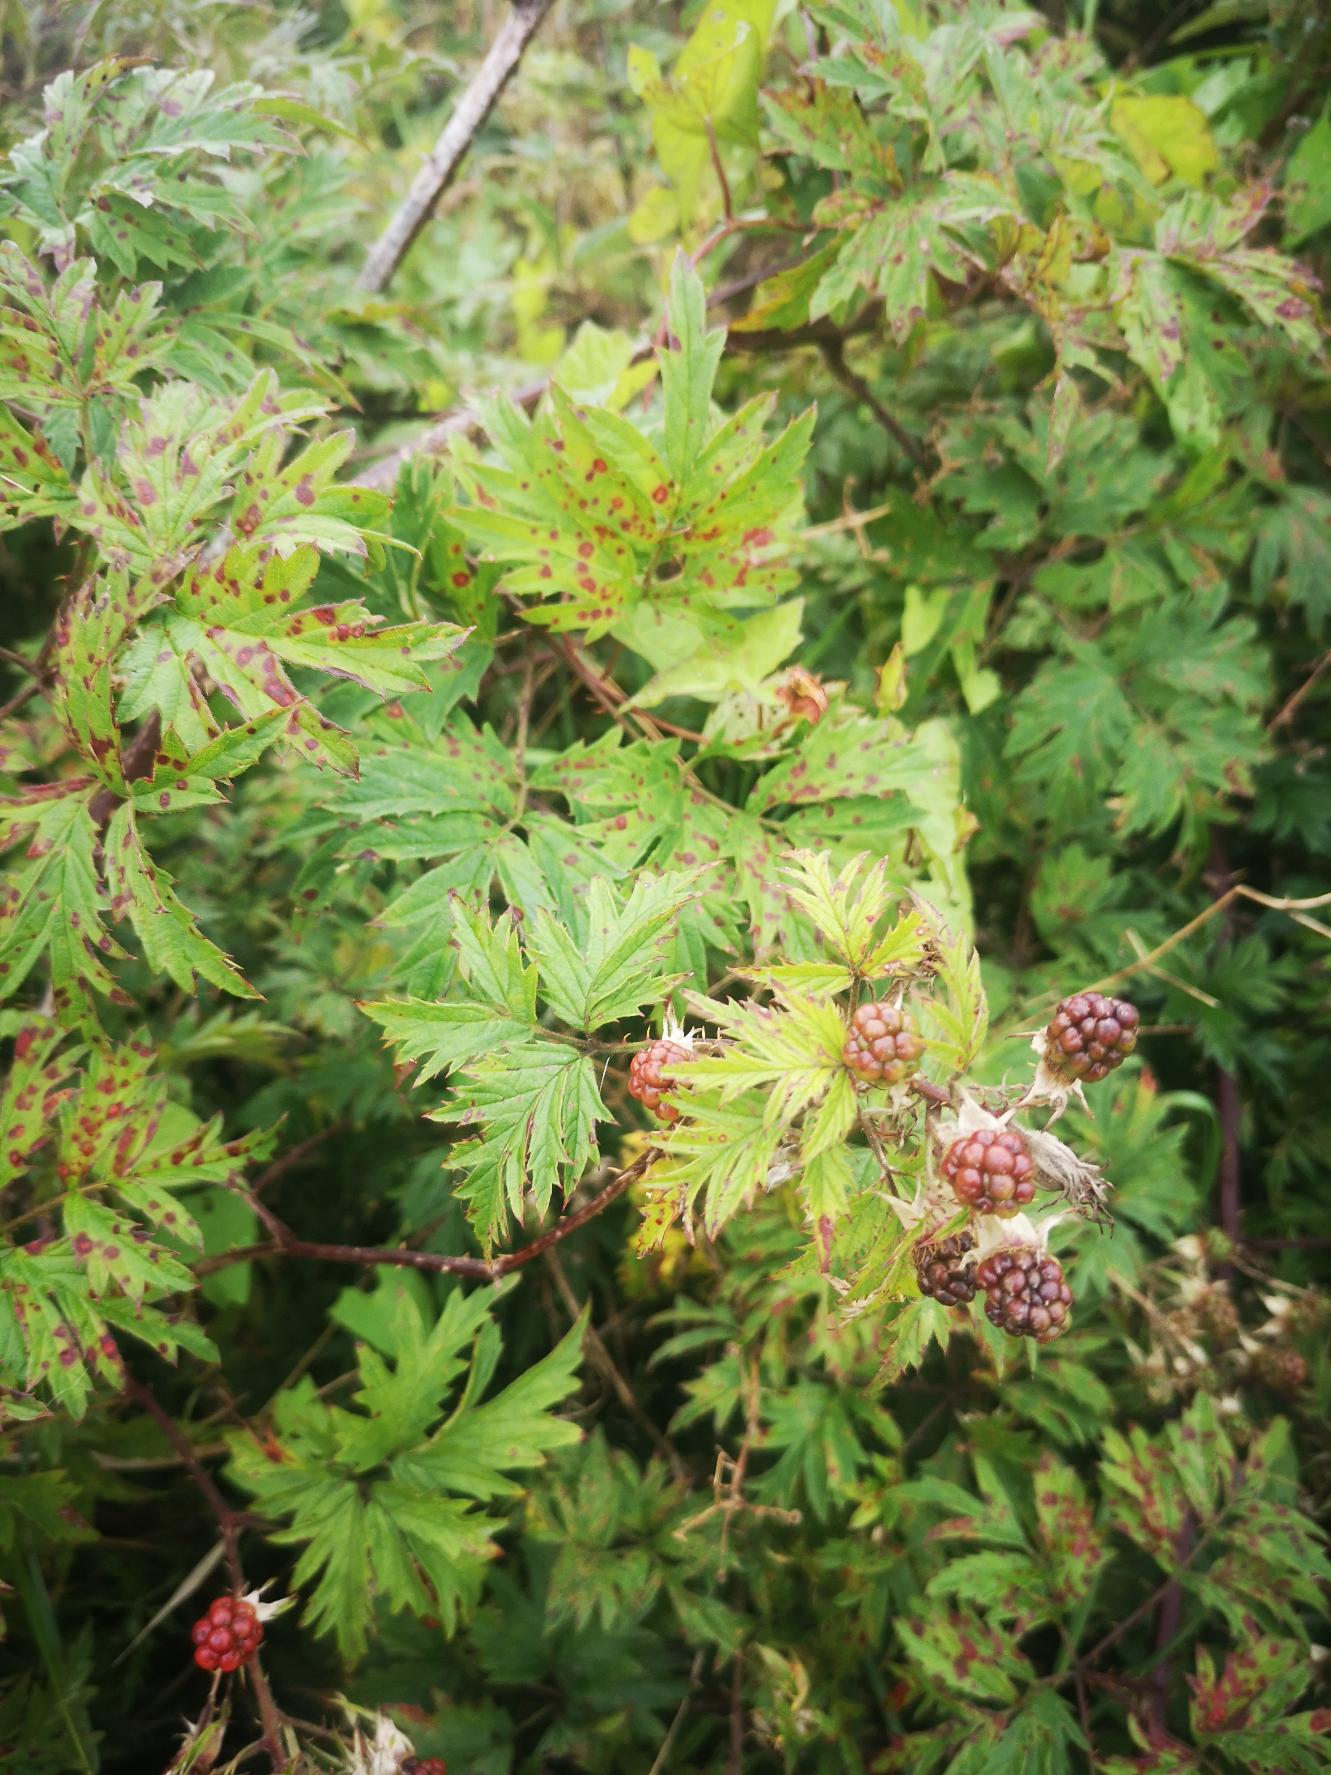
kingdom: Plantae
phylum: Tracheophyta
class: Magnoliopsida
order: Rosales
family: Rosaceae
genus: Rubus
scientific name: Rubus laciniatus
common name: Fliget brombær
